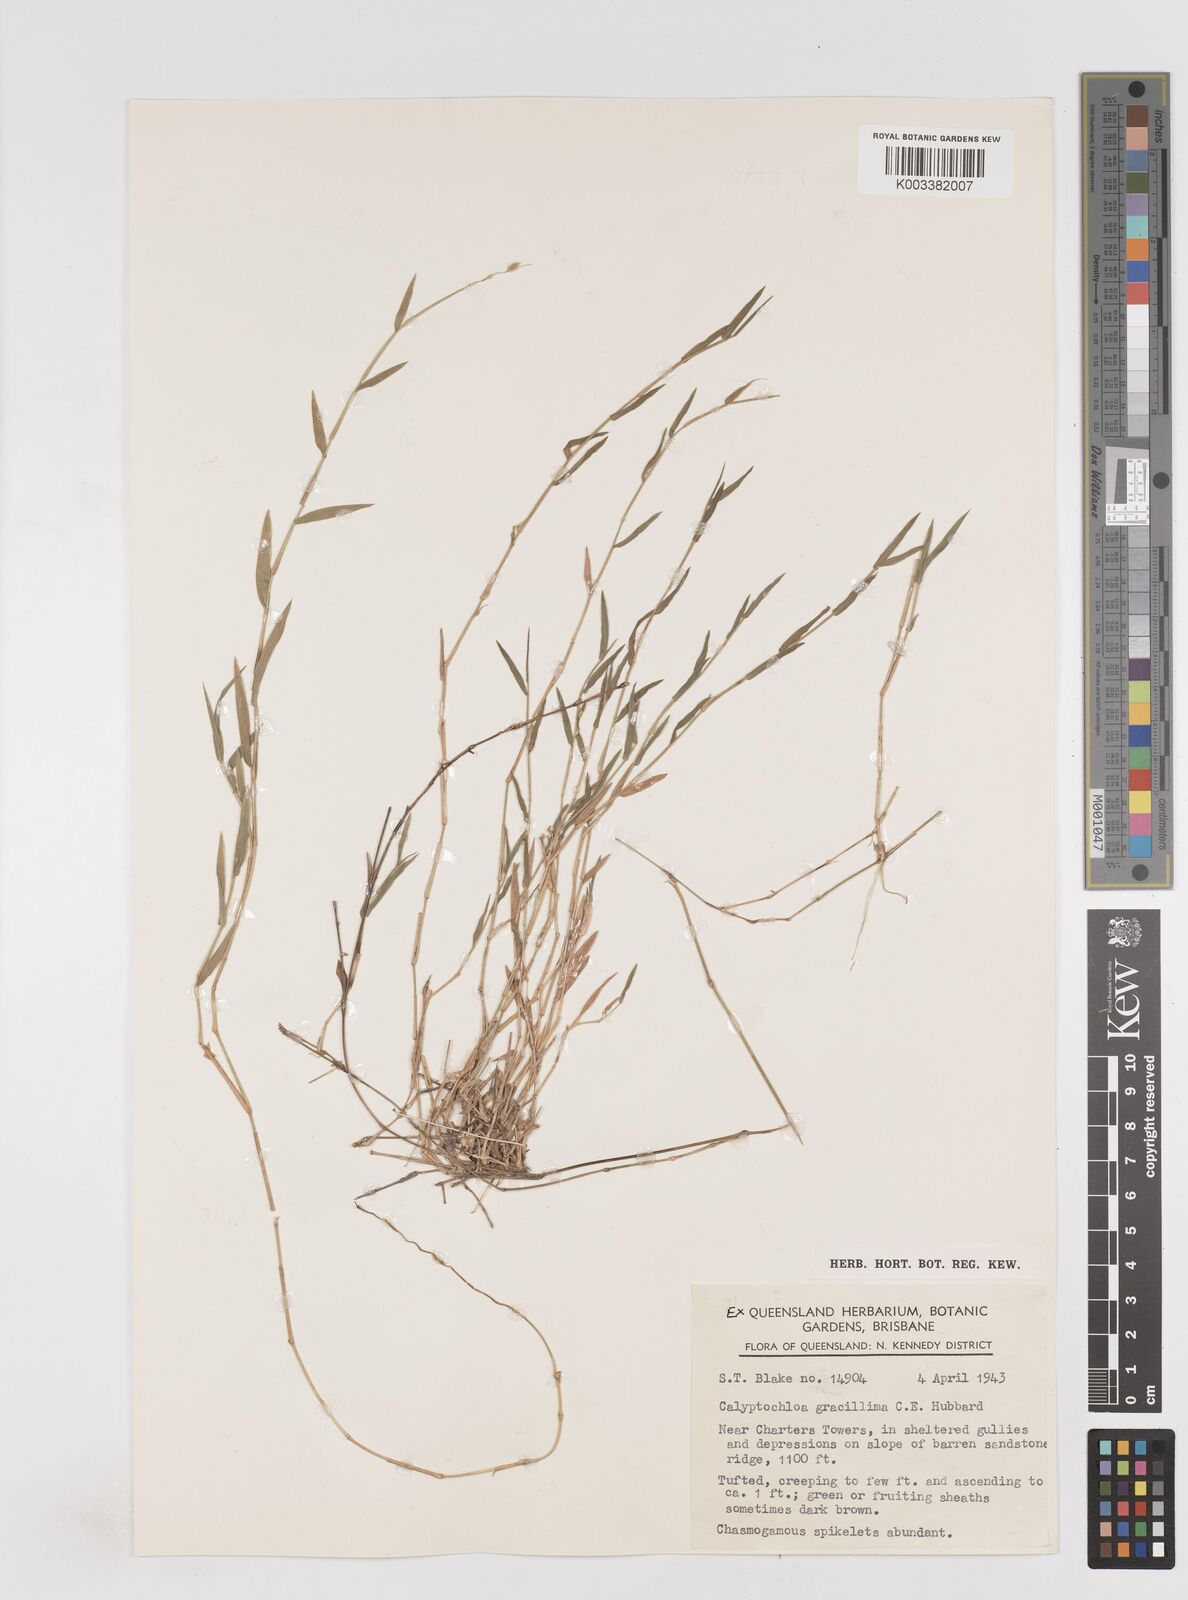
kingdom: Plantae
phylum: Tracheophyta
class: Liliopsida
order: Poales
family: Poaceae
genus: Calyptochloa
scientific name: Calyptochloa gracillima
